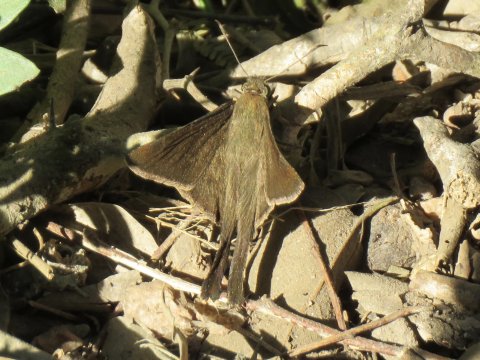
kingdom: Animalia
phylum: Arthropoda
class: Insecta
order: Lepidoptera
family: Hesperiidae
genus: Urbanus
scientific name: Urbanus procne
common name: Brown Longtail
